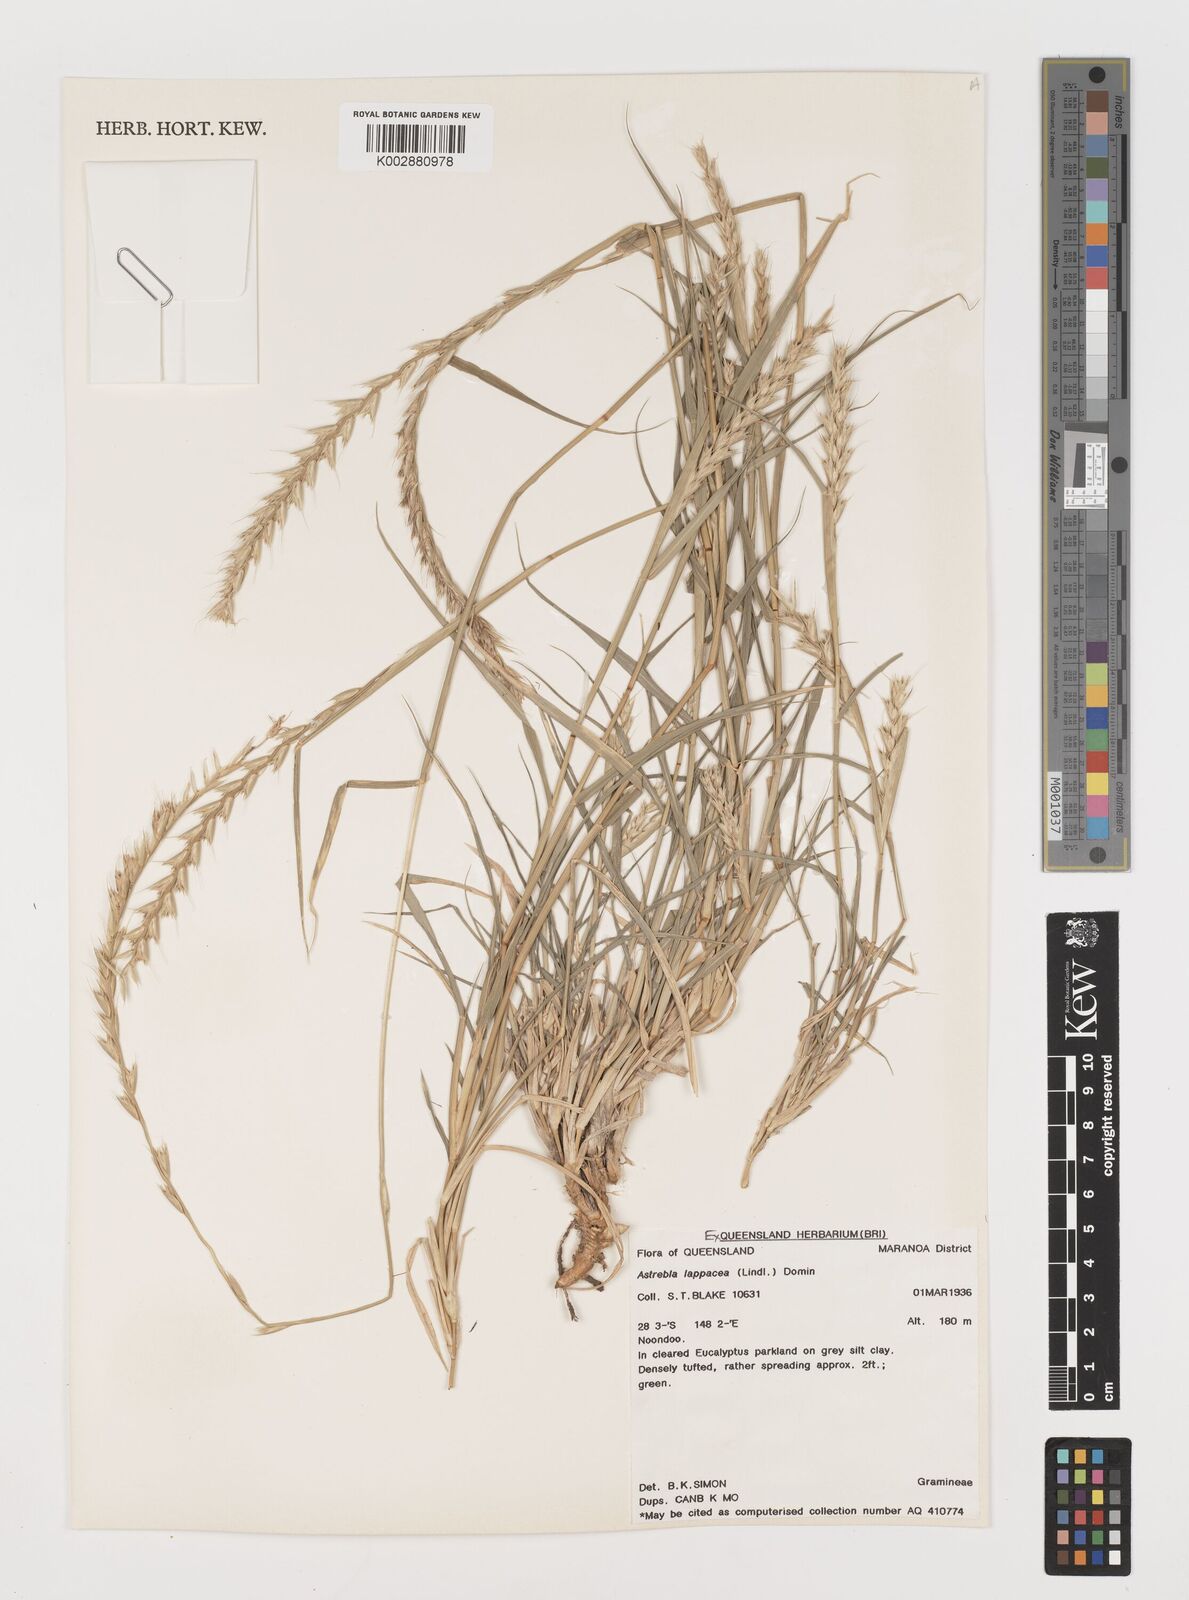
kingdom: Plantae
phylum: Tracheophyta
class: Liliopsida
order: Poales
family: Poaceae
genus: Astrebla
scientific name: Astrebla lappacea
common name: Curly mitchell grass
